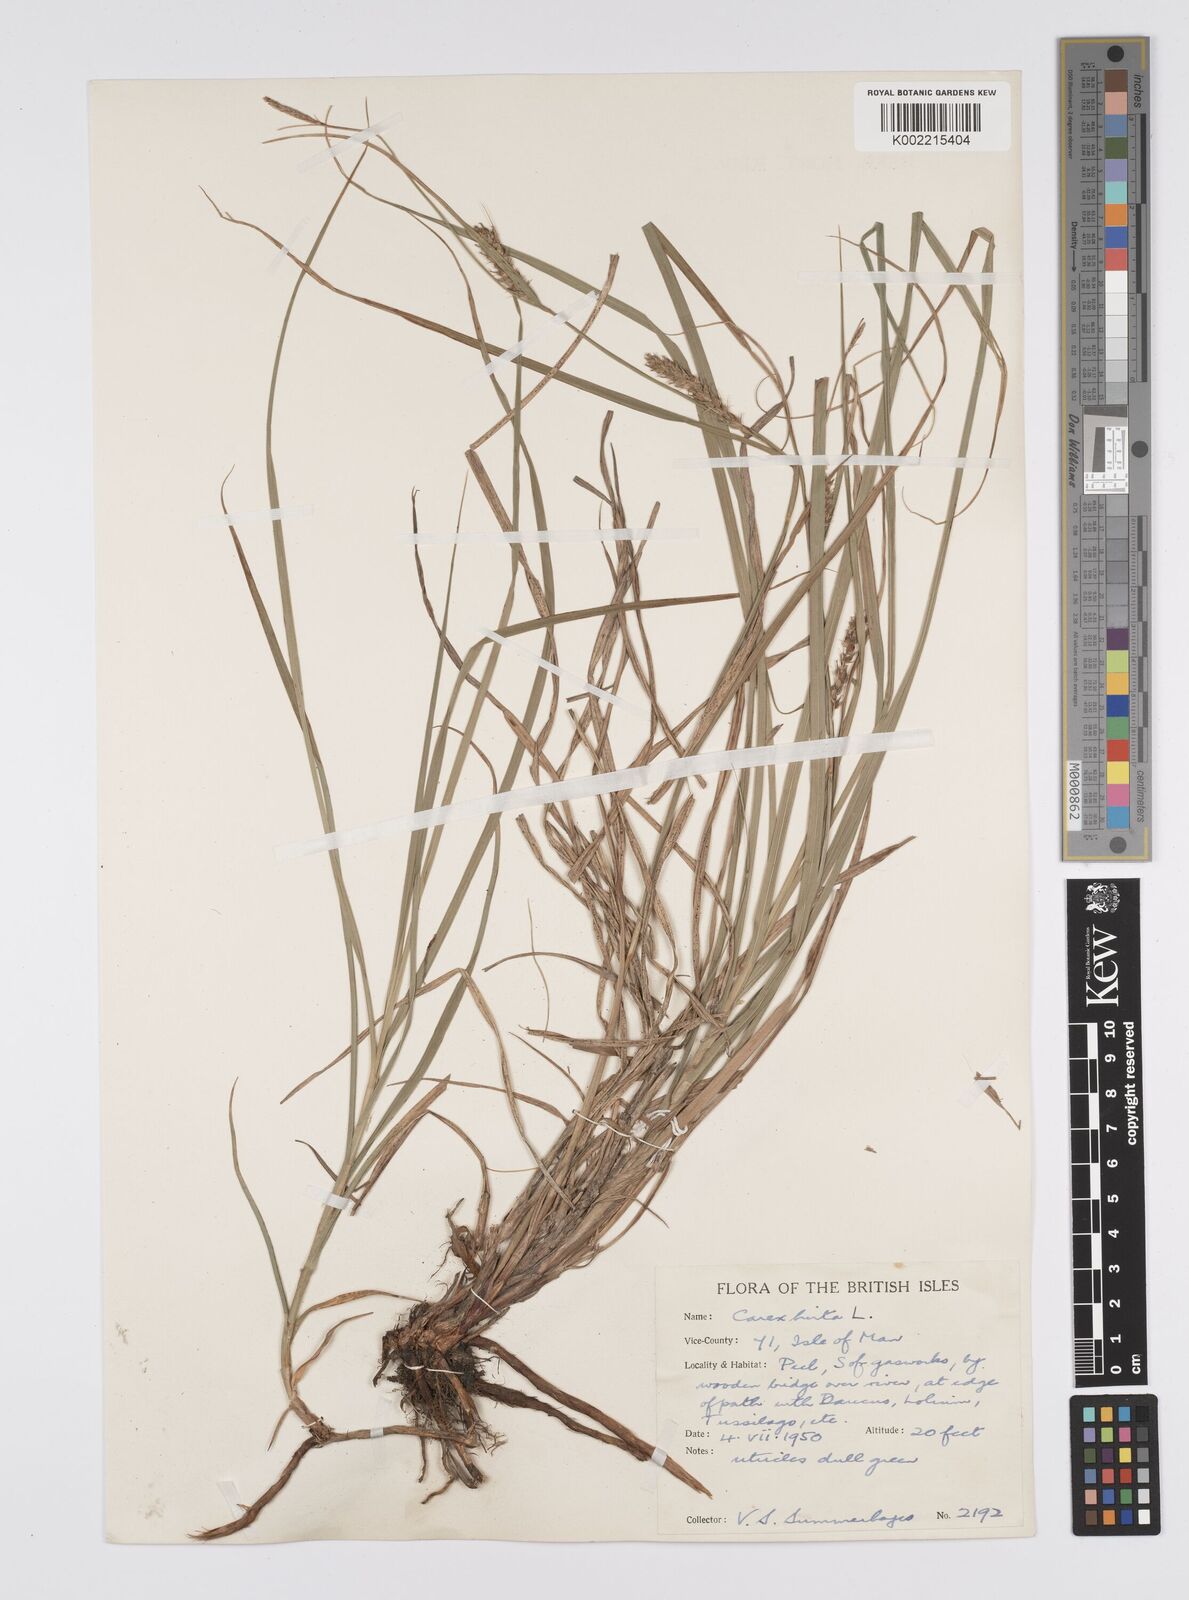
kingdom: Plantae
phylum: Tracheophyta
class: Liliopsida
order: Poales
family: Cyperaceae
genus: Carex
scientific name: Carex hirta
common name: Hairy sedge
